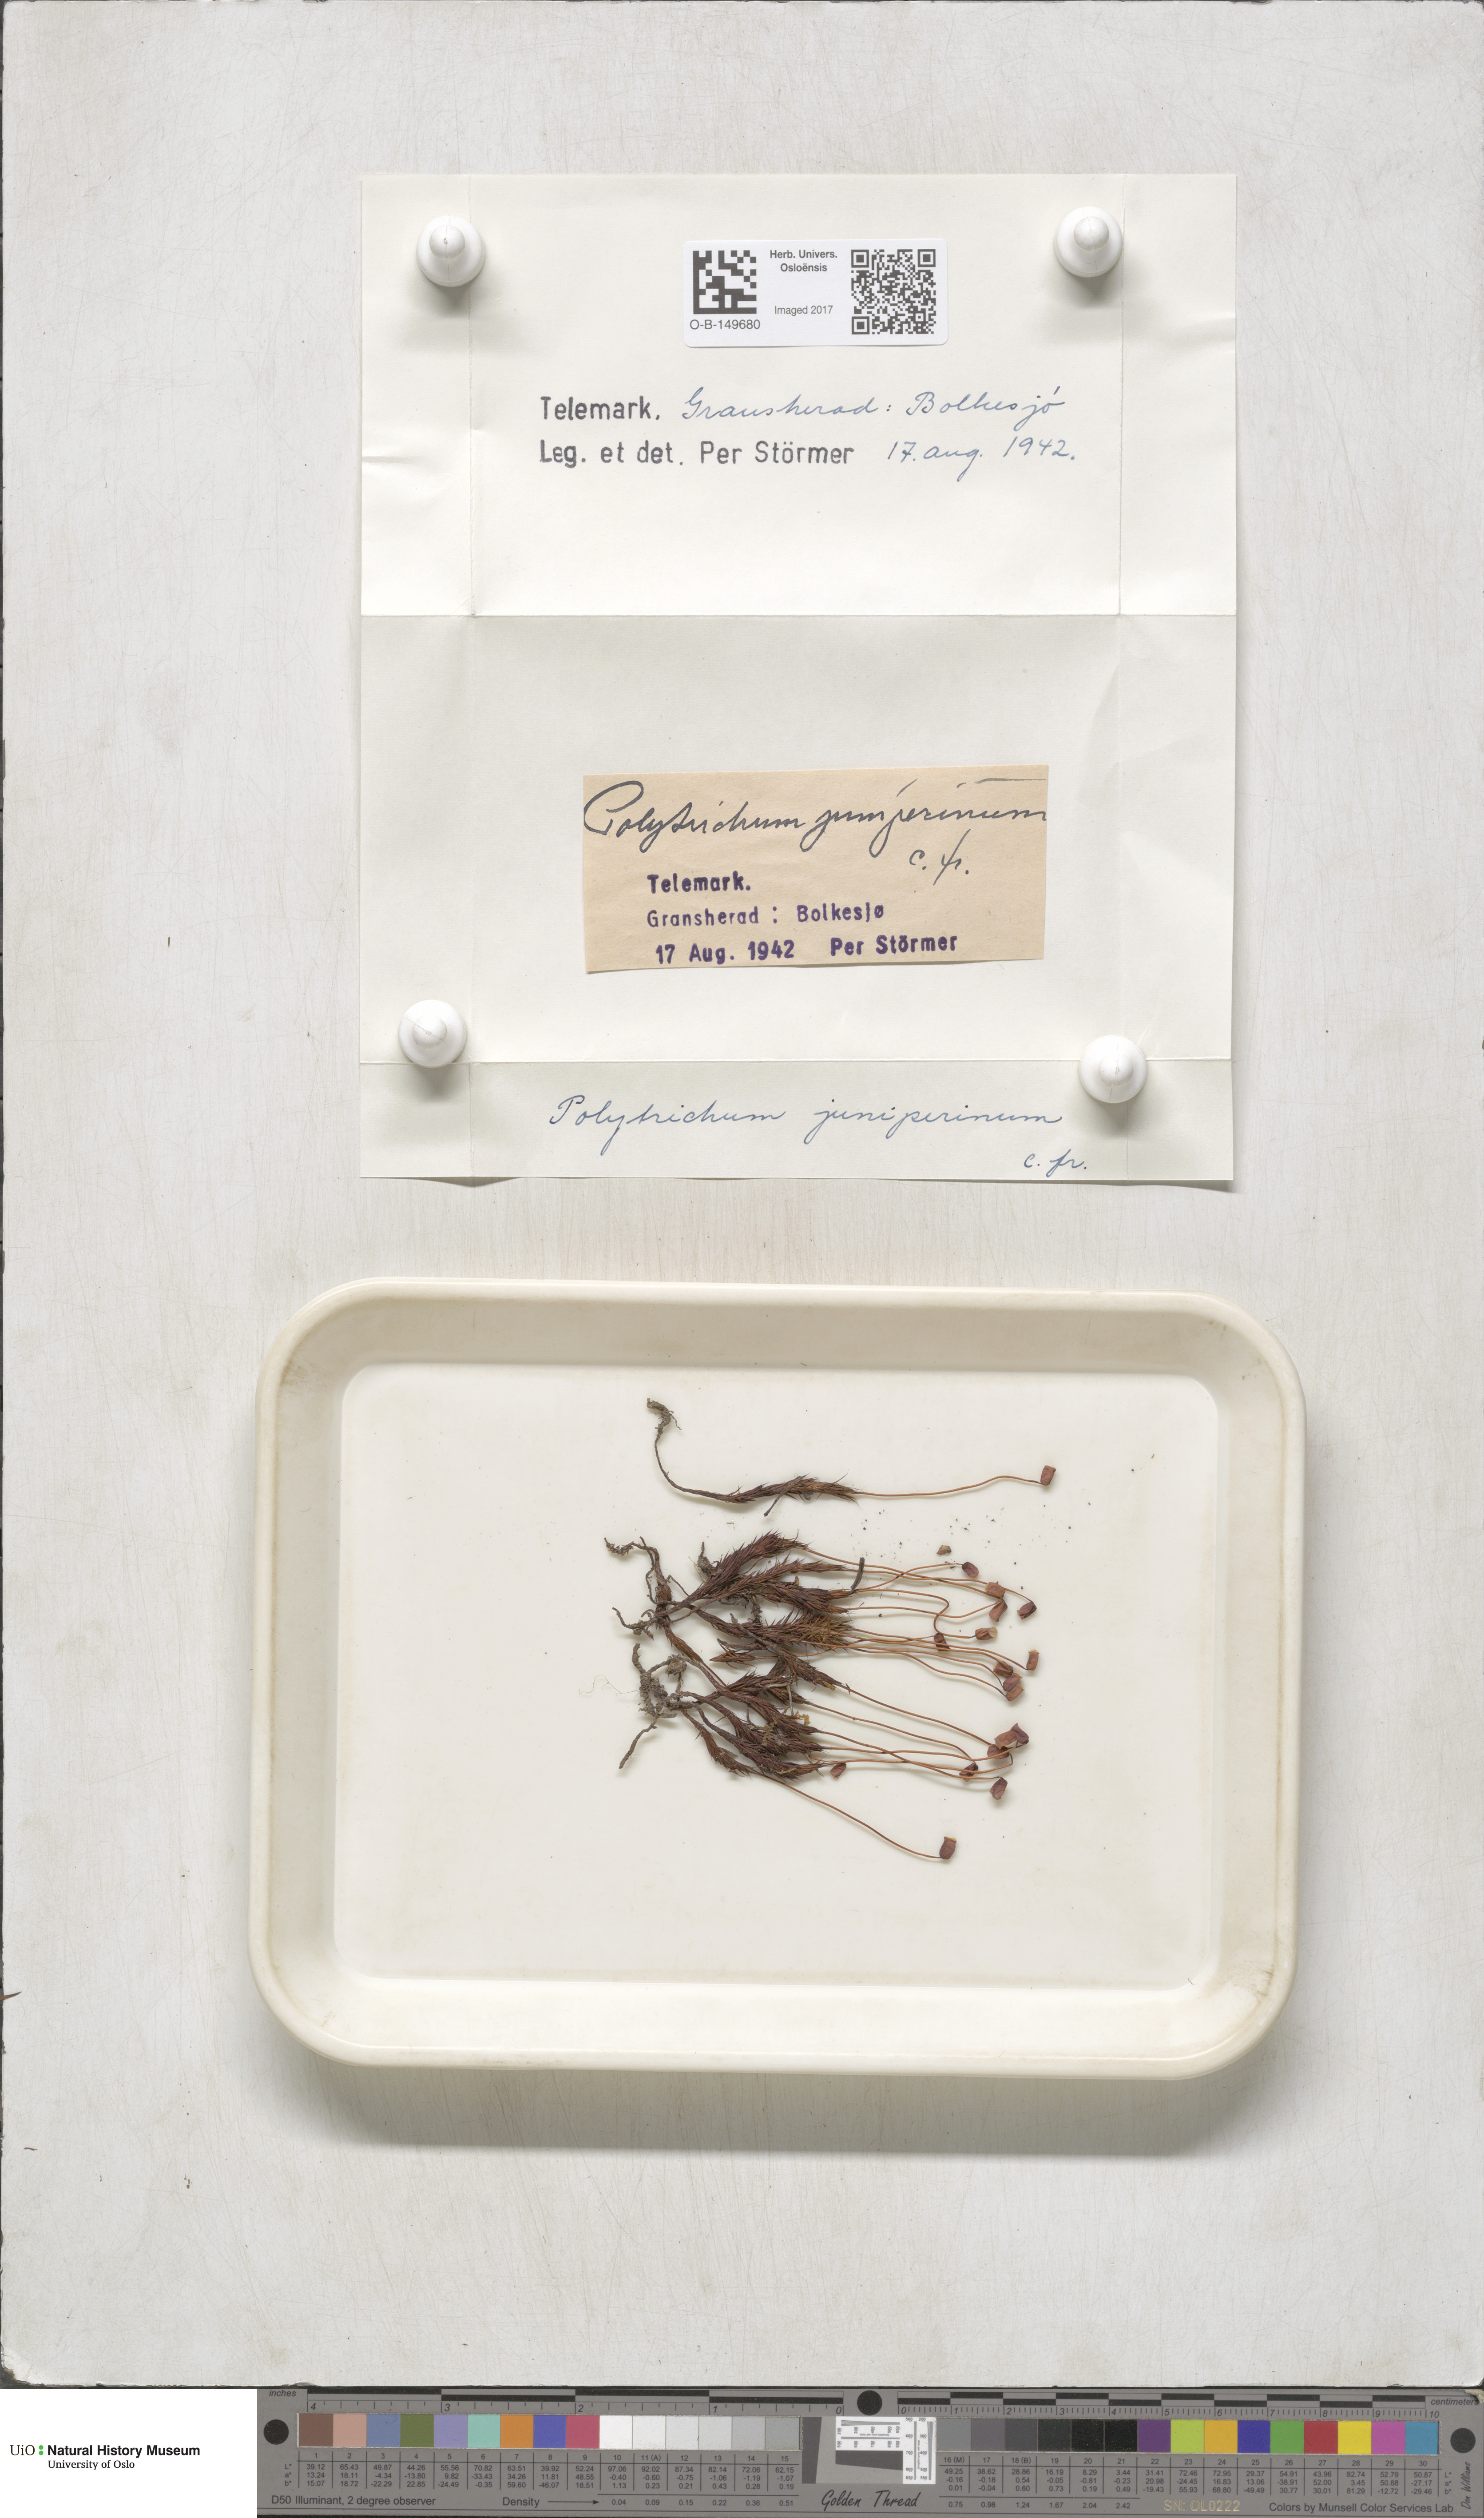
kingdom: Plantae
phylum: Bryophyta
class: Polytrichopsida
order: Polytrichales
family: Polytrichaceae
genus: Polytrichum
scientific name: Polytrichum juniperinum
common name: Juniper haircap moss
